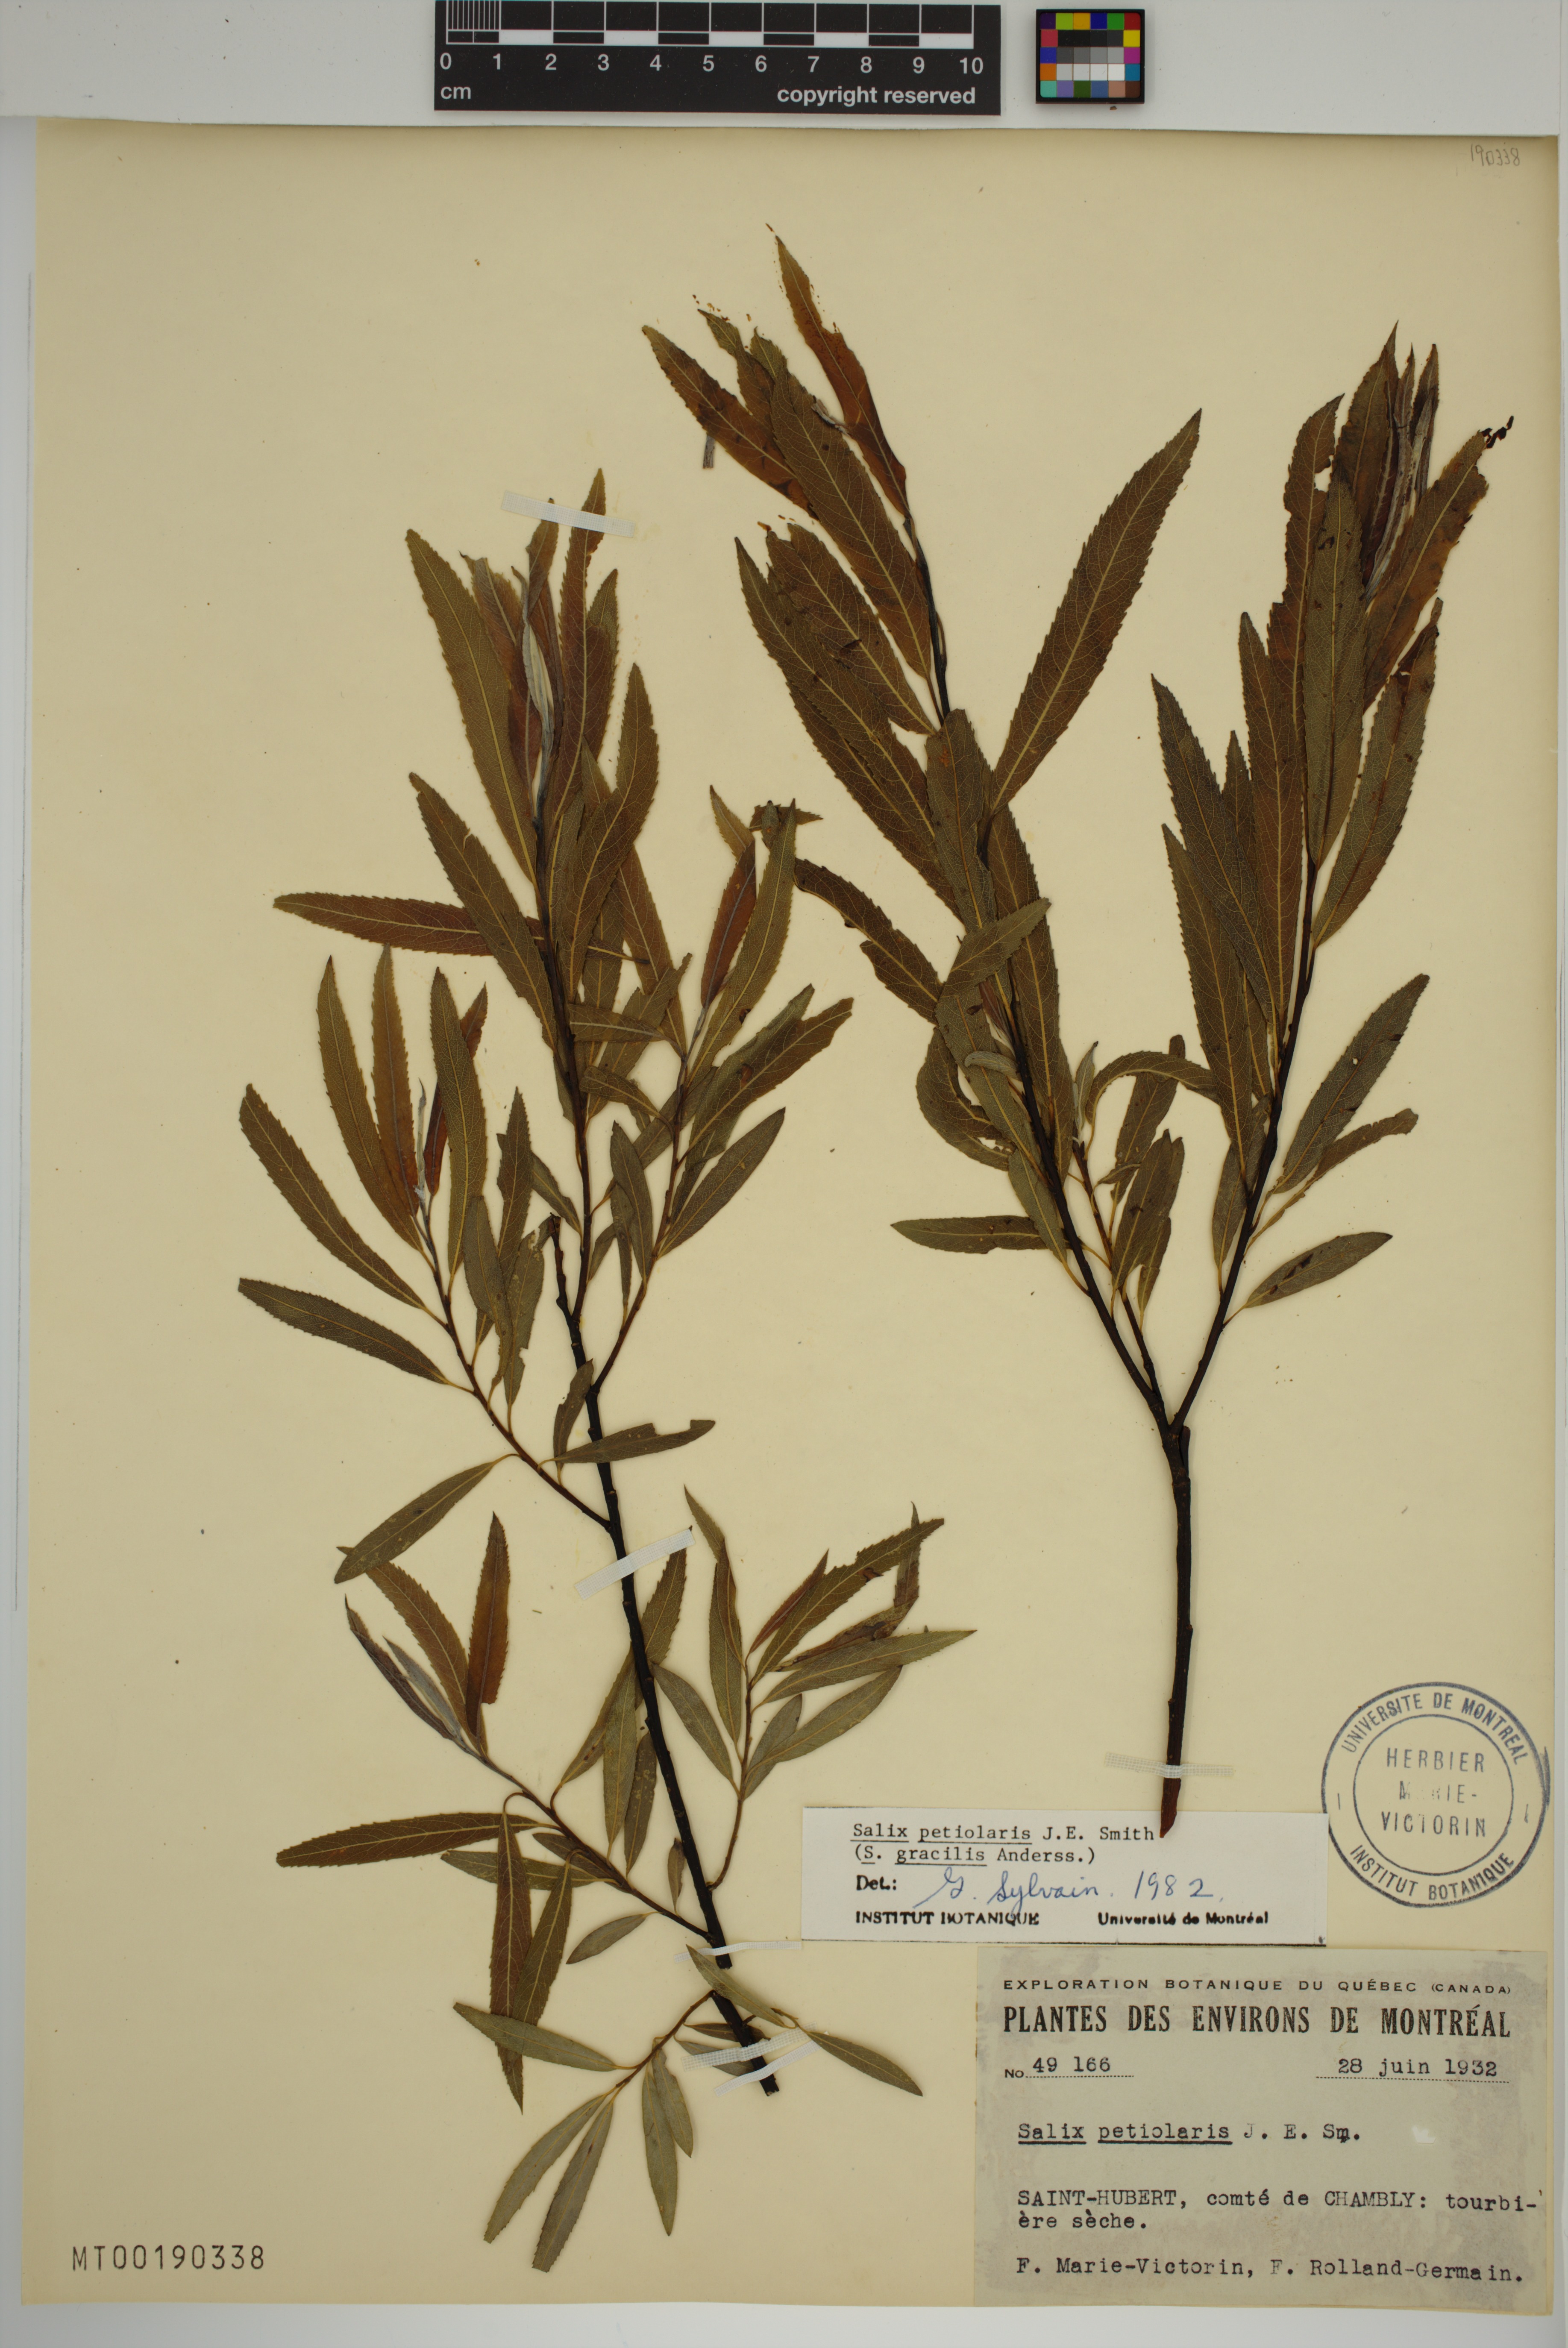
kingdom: Plantae
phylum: Tracheophyta
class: Magnoliopsida
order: Malpighiales
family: Salicaceae
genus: Salix
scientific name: Salix petiolaris
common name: Slender willow
